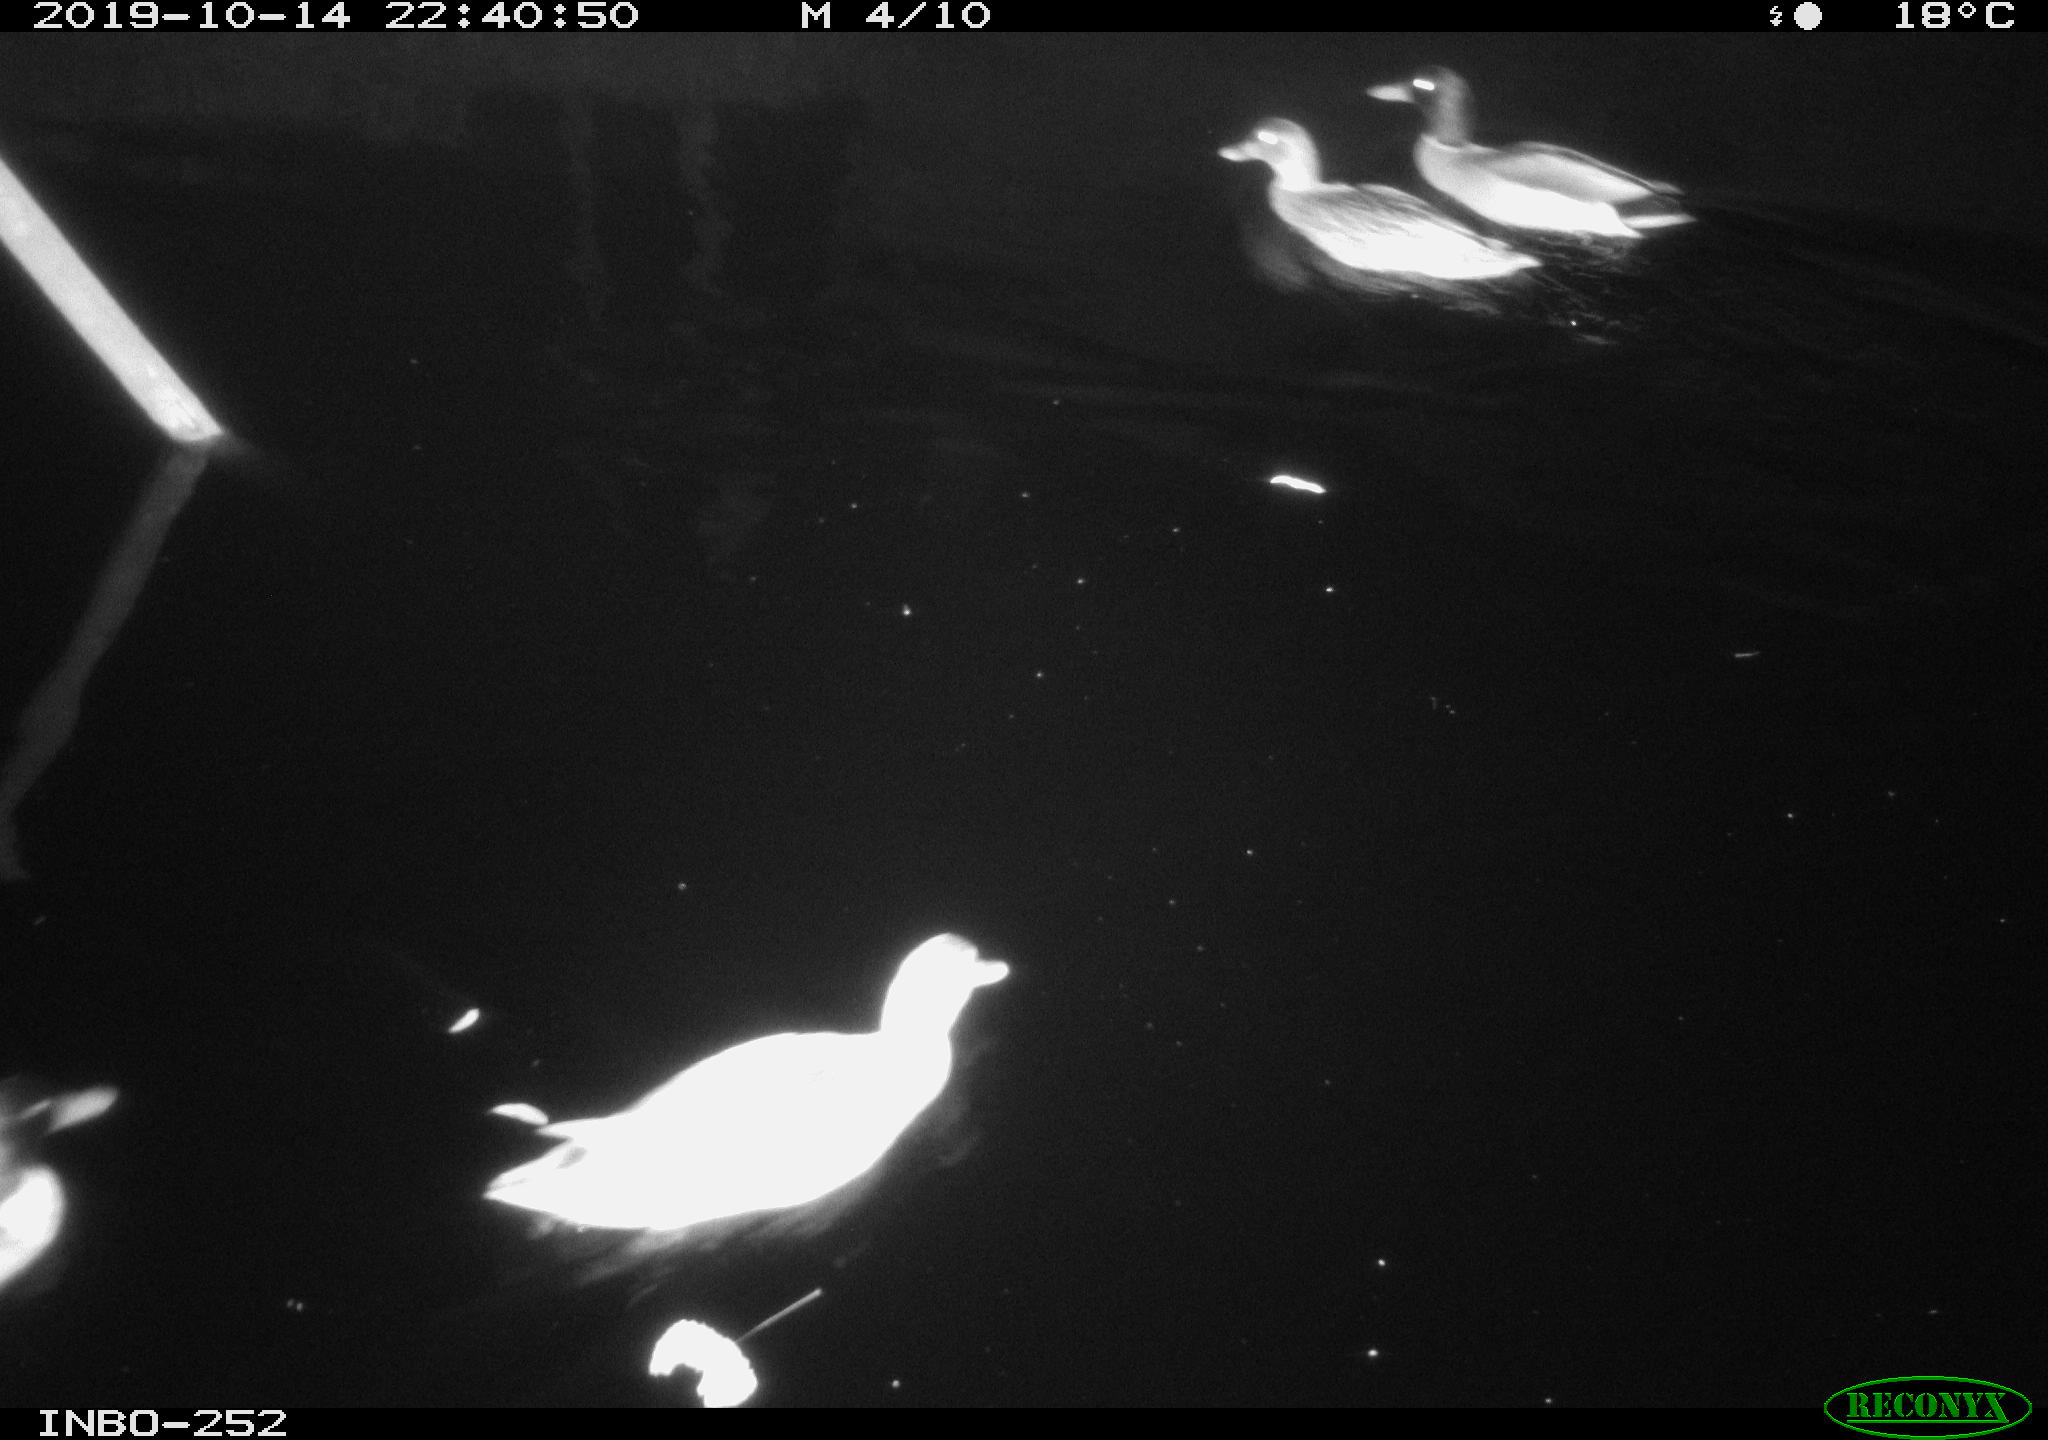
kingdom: Animalia
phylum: Chordata
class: Aves
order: Anseriformes
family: Anatidae
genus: Anas
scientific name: Anas platyrhynchos
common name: Mallard
